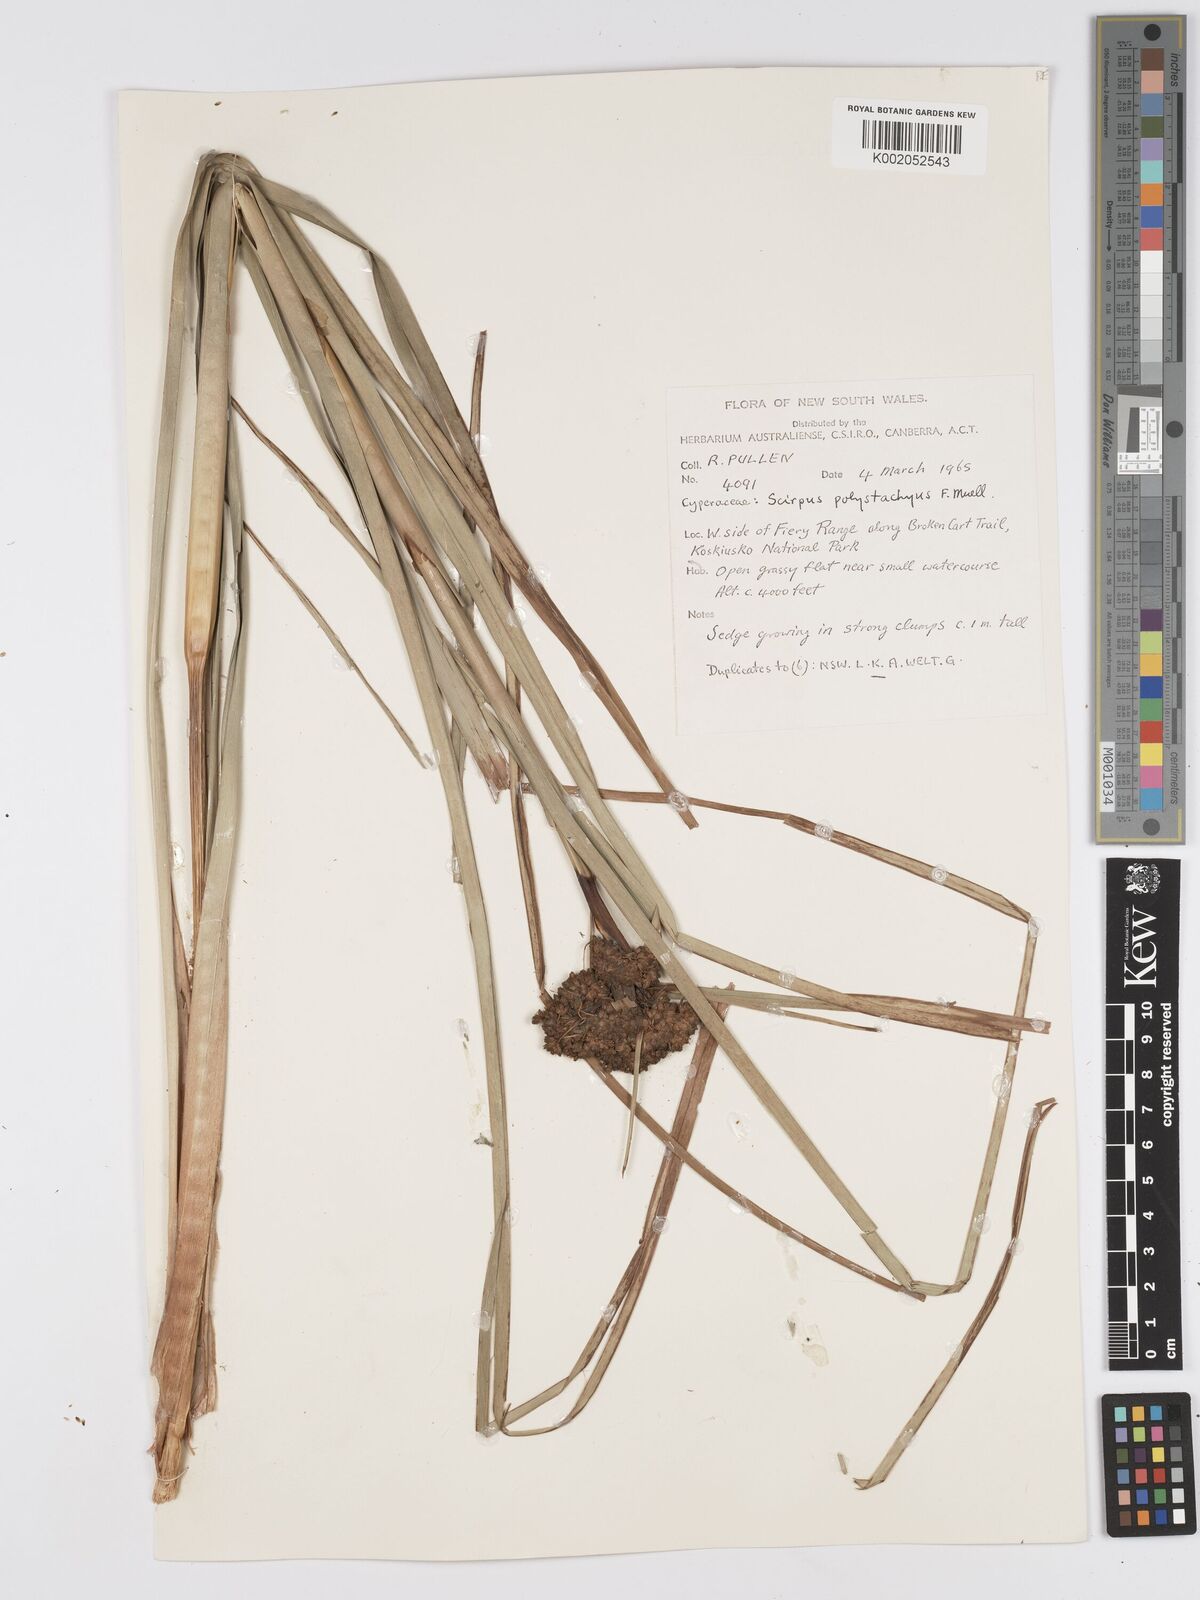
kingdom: Plantae
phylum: Tracheophyta
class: Liliopsida
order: Poales
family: Cyperaceae
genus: Scirpus
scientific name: Scirpus polystachyus
